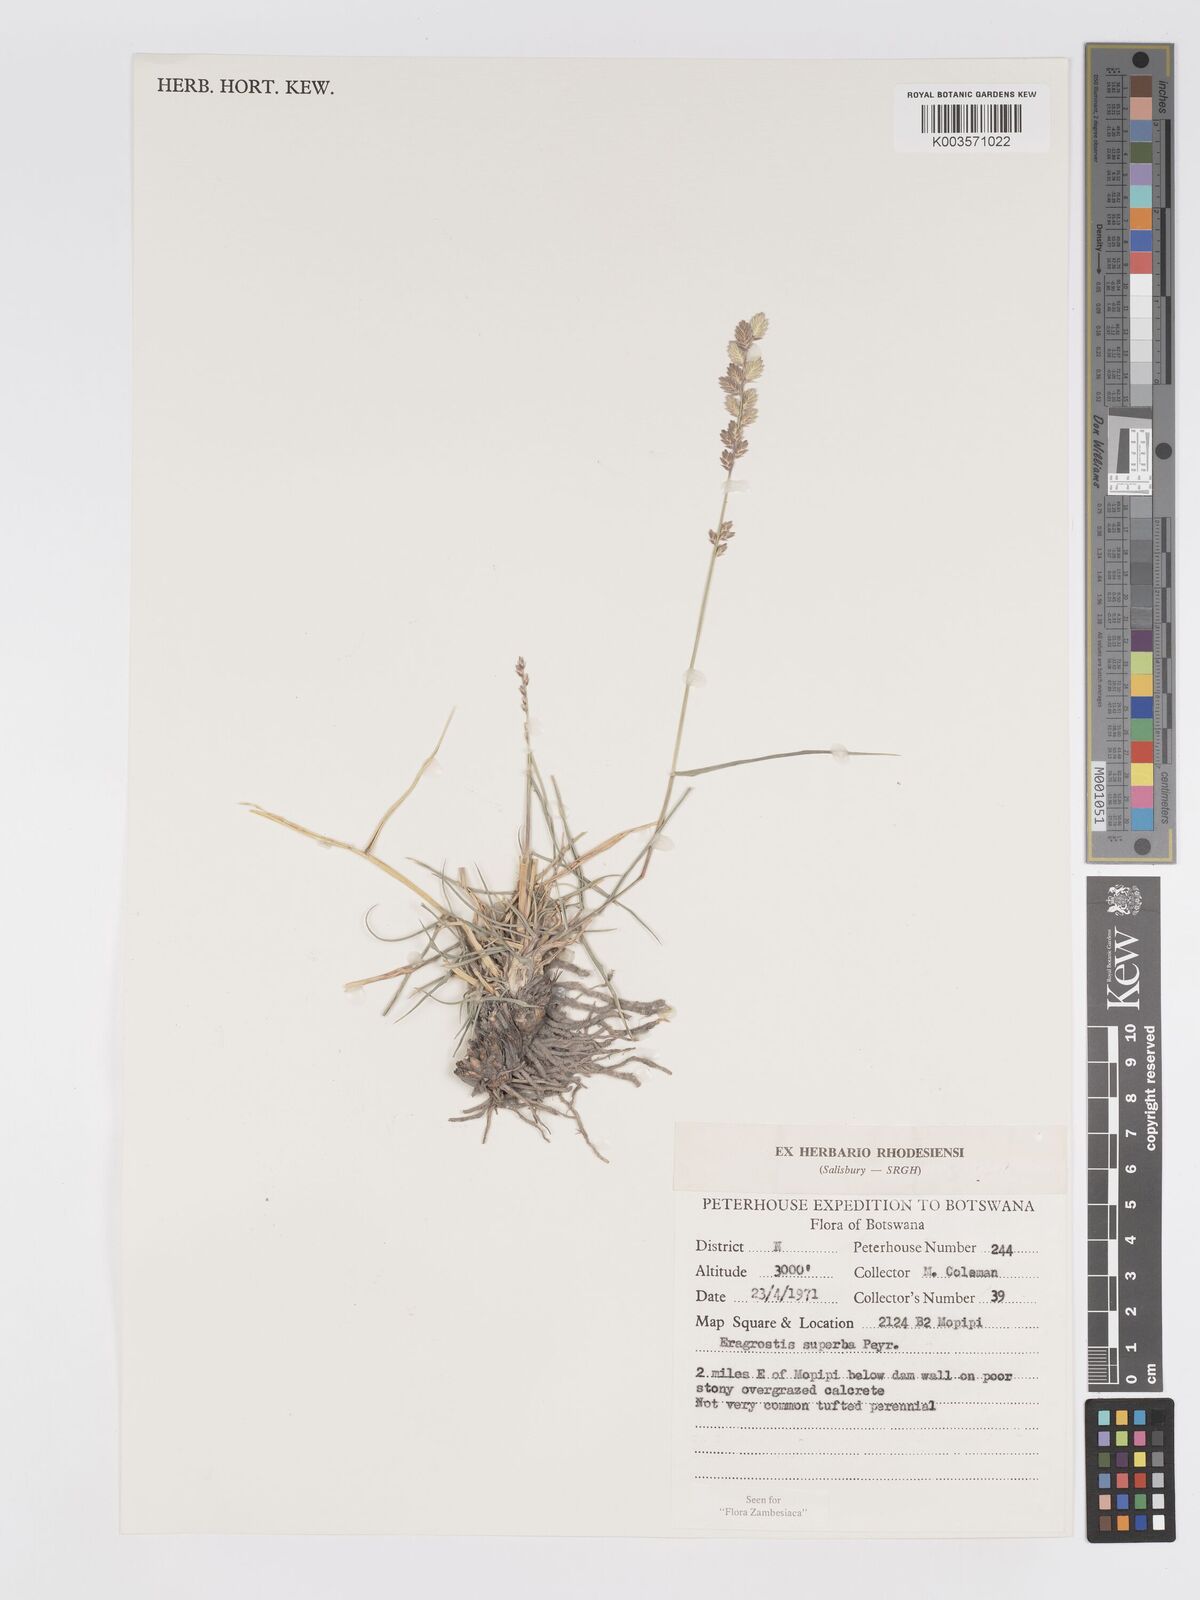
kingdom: Plantae
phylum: Tracheophyta
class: Liliopsida
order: Poales
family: Poaceae
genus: Eragrostis
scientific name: Eragrostis superba
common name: Wilman lovegrass
